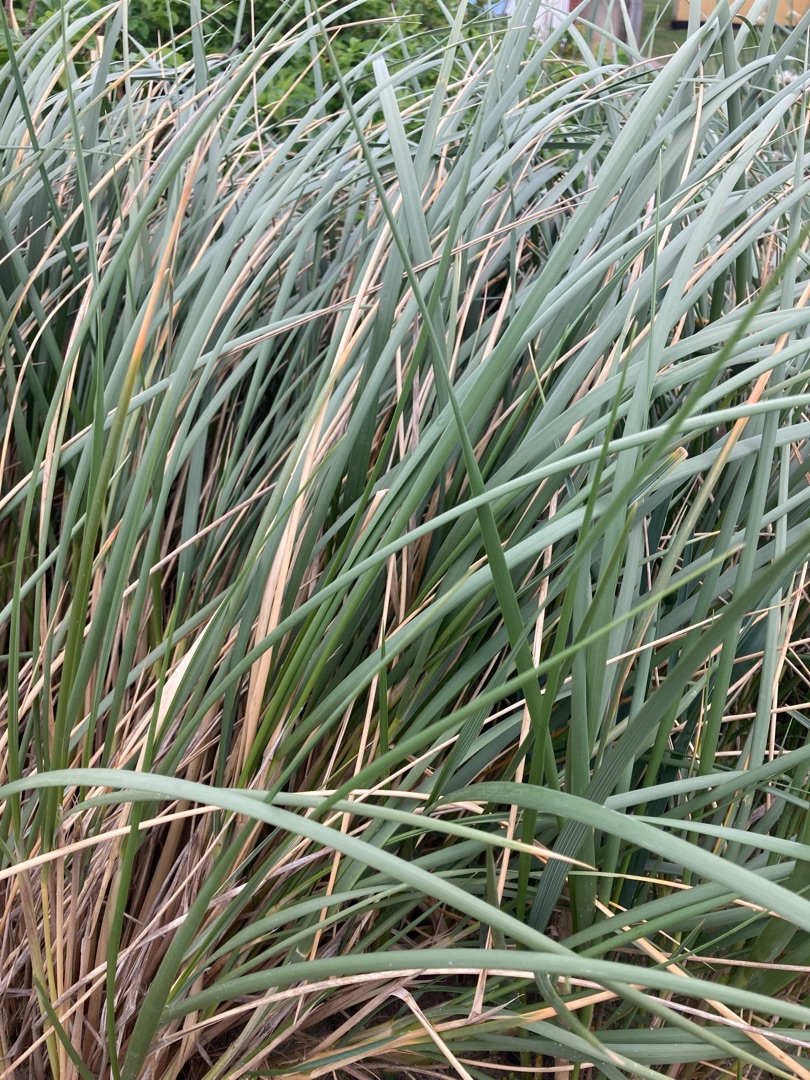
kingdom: Plantae
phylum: Tracheophyta
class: Liliopsida
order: Poales
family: Poaceae
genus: Leymus
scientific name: Leymus arenarius
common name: Marehalm
